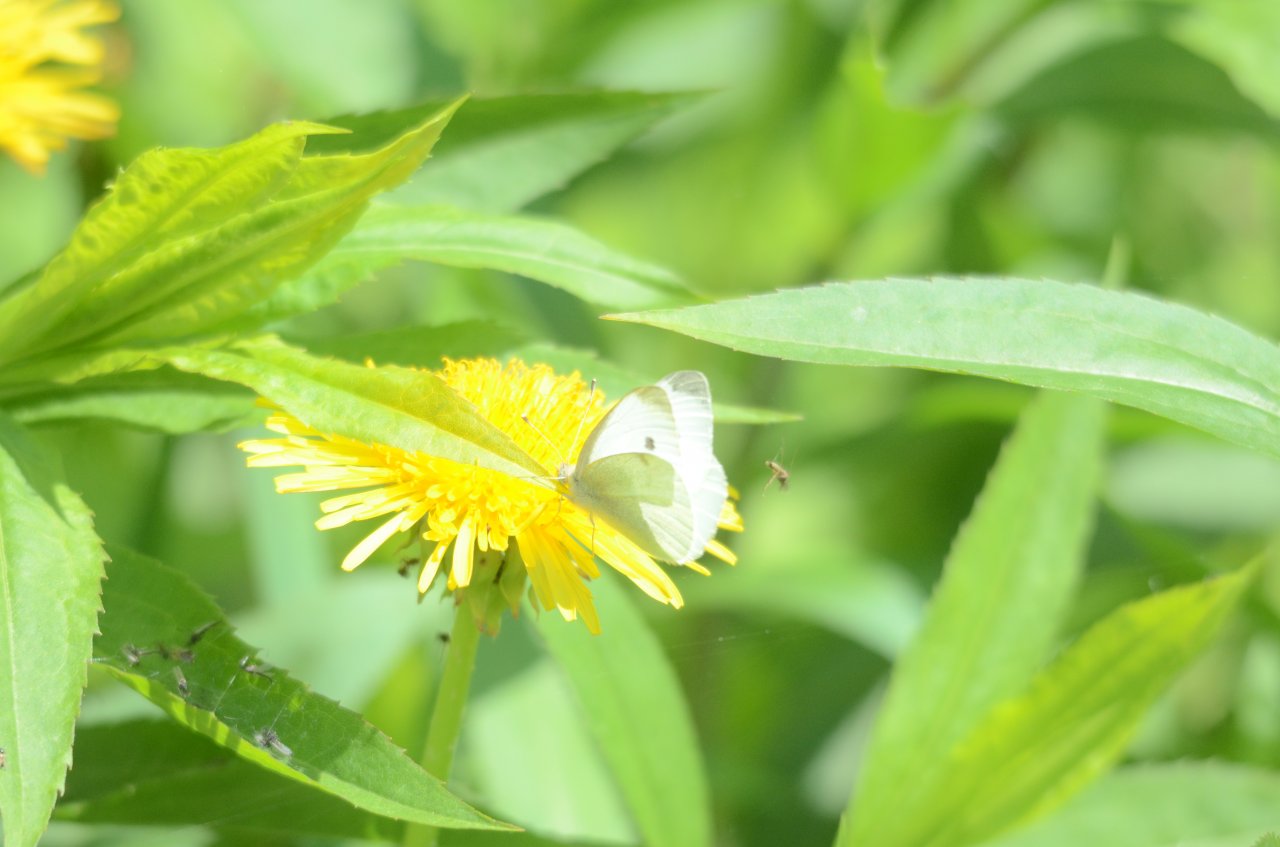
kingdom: Animalia
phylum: Arthropoda
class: Insecta
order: Lepidoptera
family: Pieridae
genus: Pieris
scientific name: Pieris rapae
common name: Cabbage White
